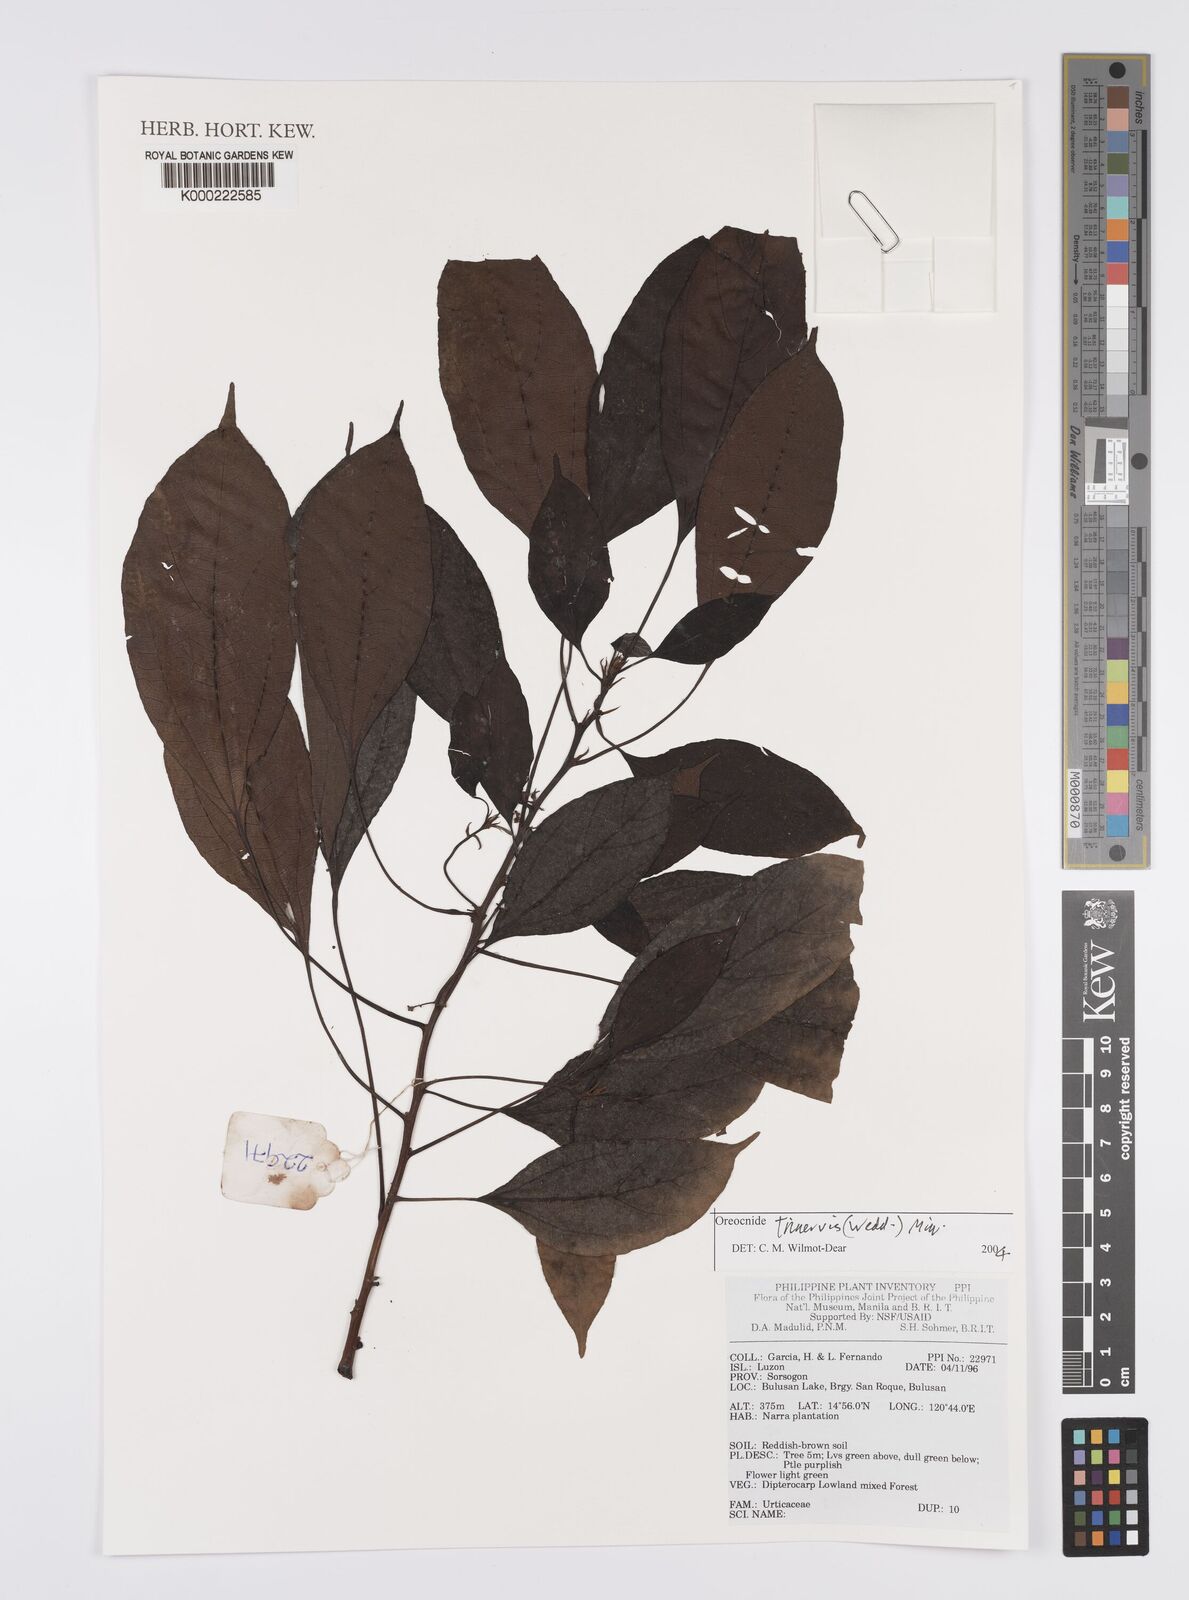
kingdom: Plantae
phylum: Tracheophyta
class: Magnoliopsida
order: Rosales
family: Urticaceae
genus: Oreocnide
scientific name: Oreocnide trinervis
